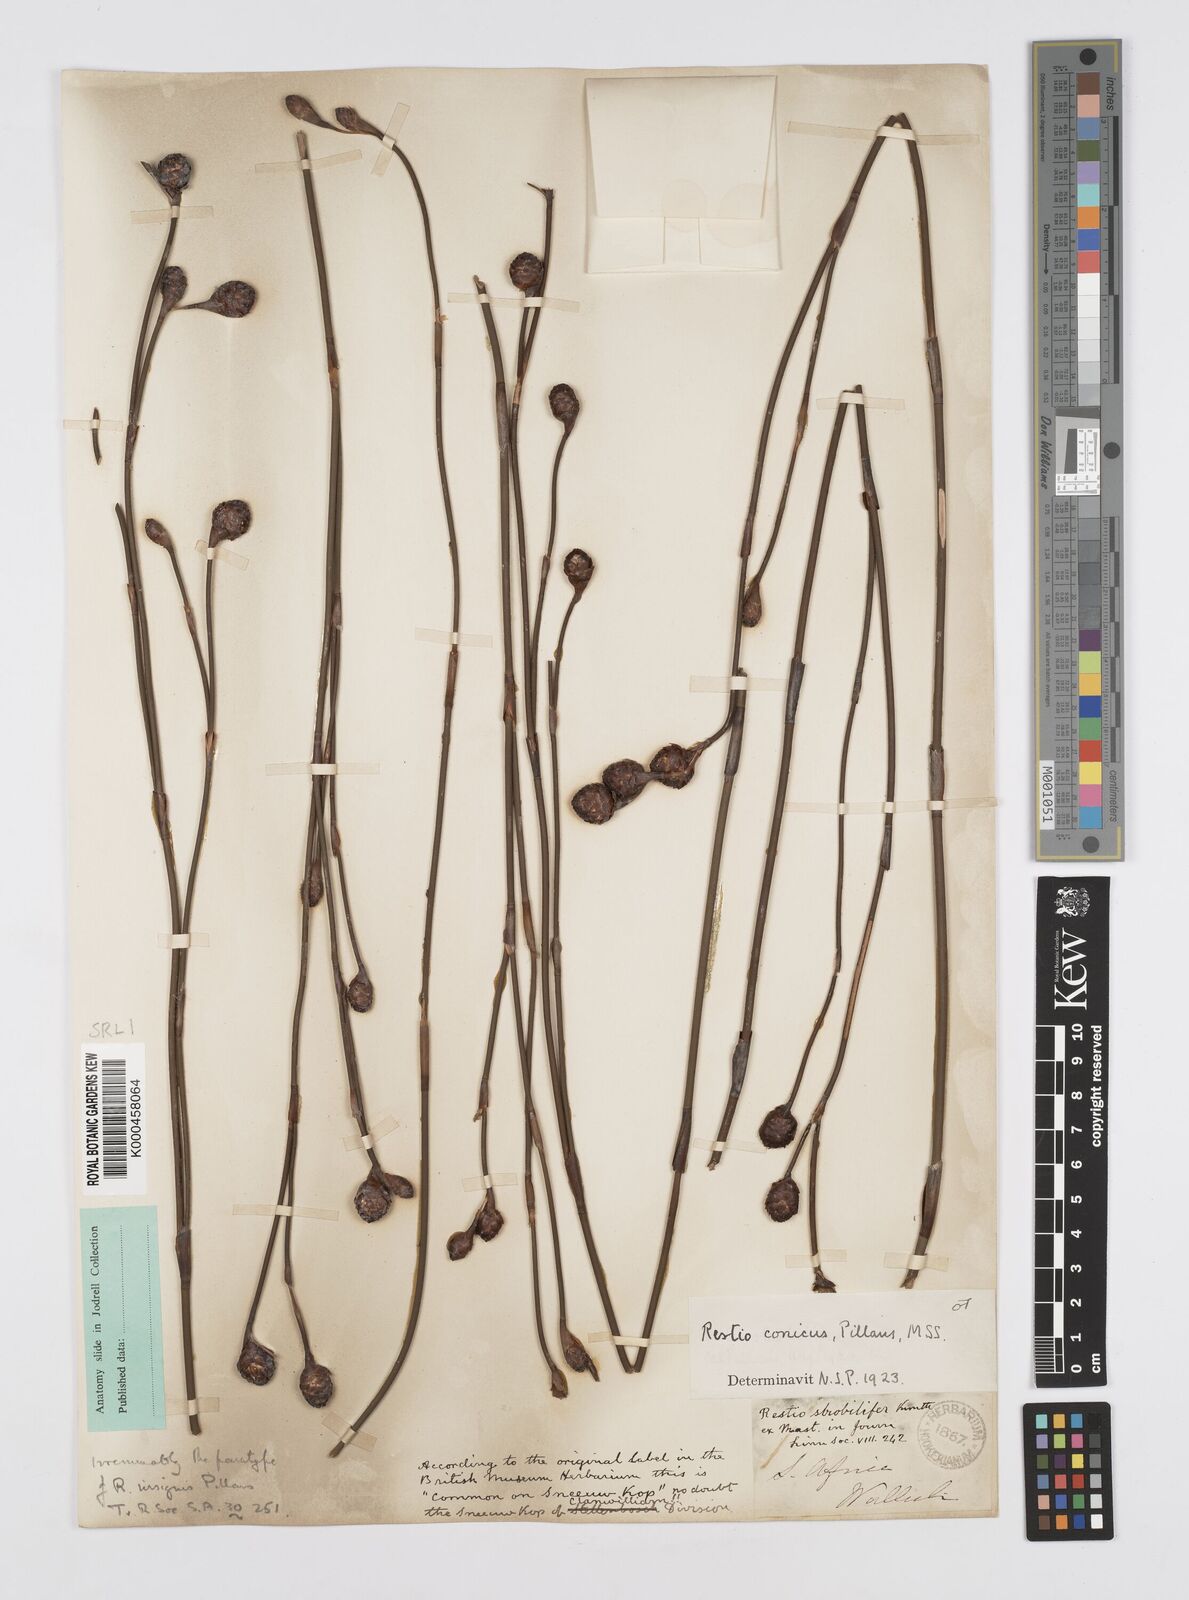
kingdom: Plantae
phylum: Tracheophyta
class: Liliopsida
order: Poales
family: Restionaceae
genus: Restio
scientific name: Restio insignis
